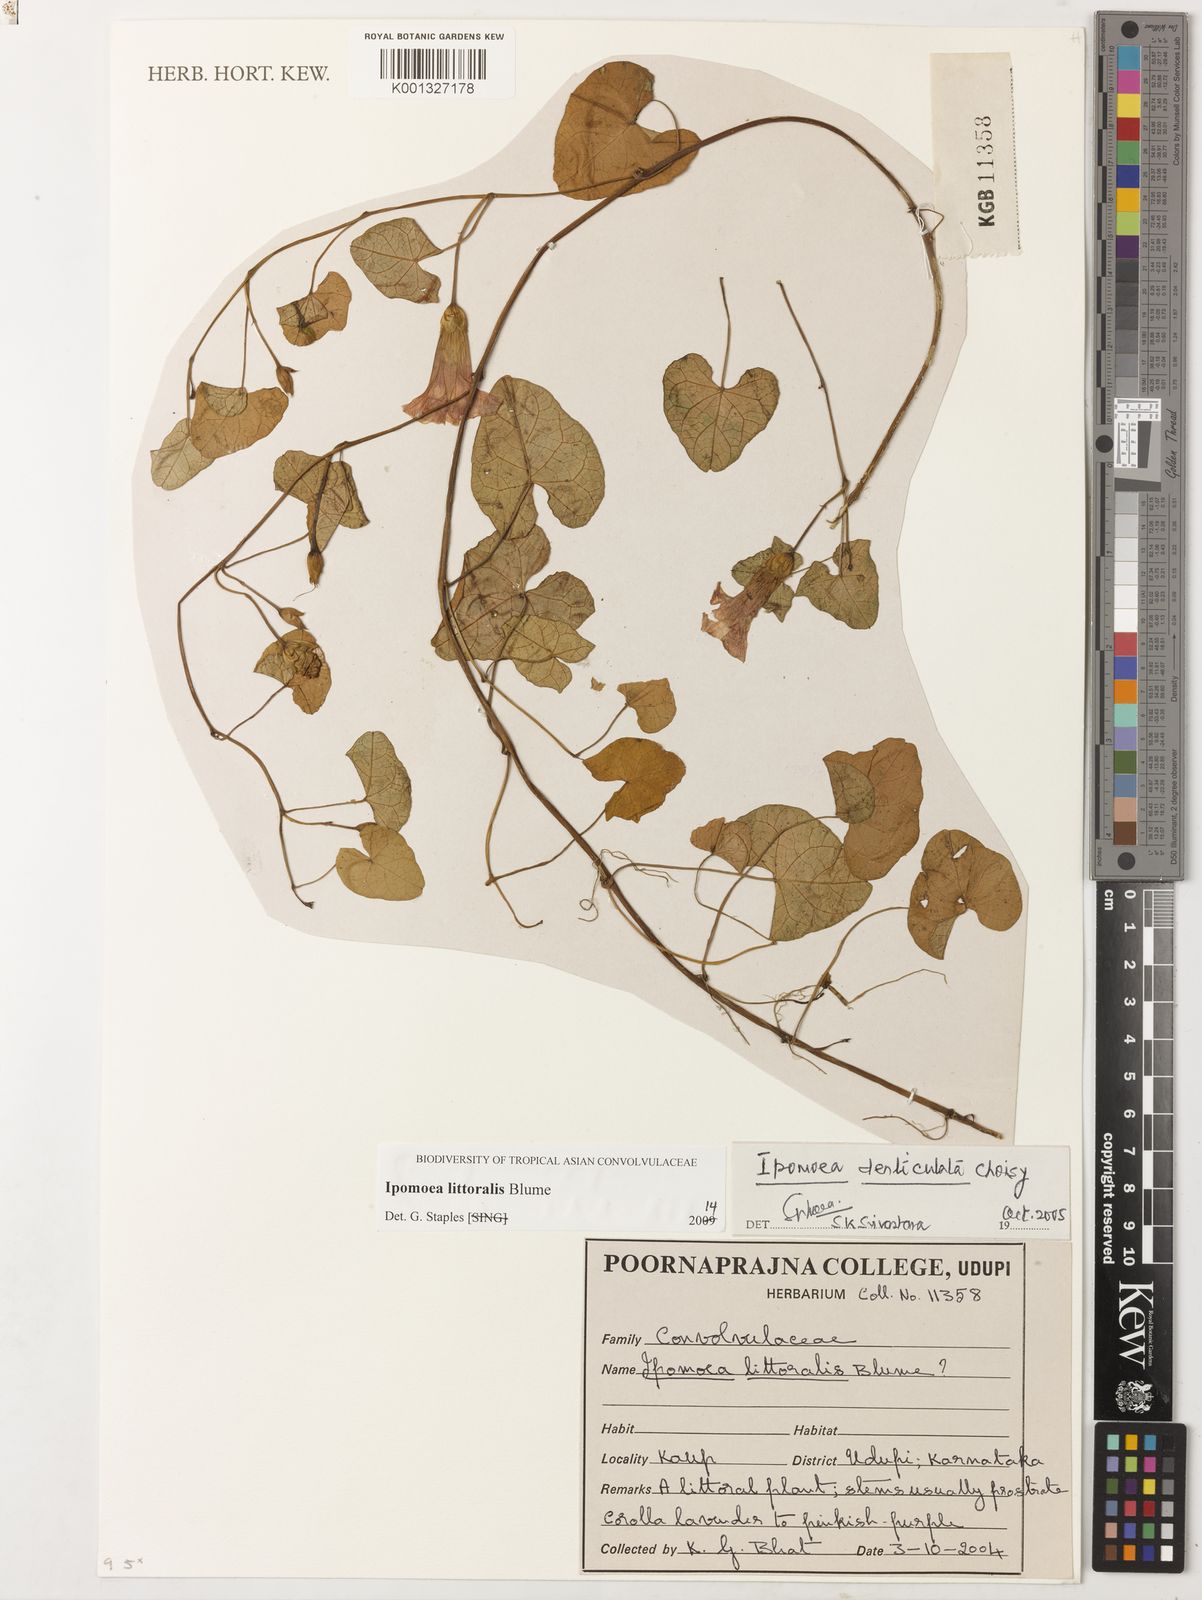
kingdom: Plantae
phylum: Tracheophyta
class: Magnoliopsida
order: Solanales
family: Convolvulaceae
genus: Ipomoea
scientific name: Ipomoea littoralis
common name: Coastal morning glory
